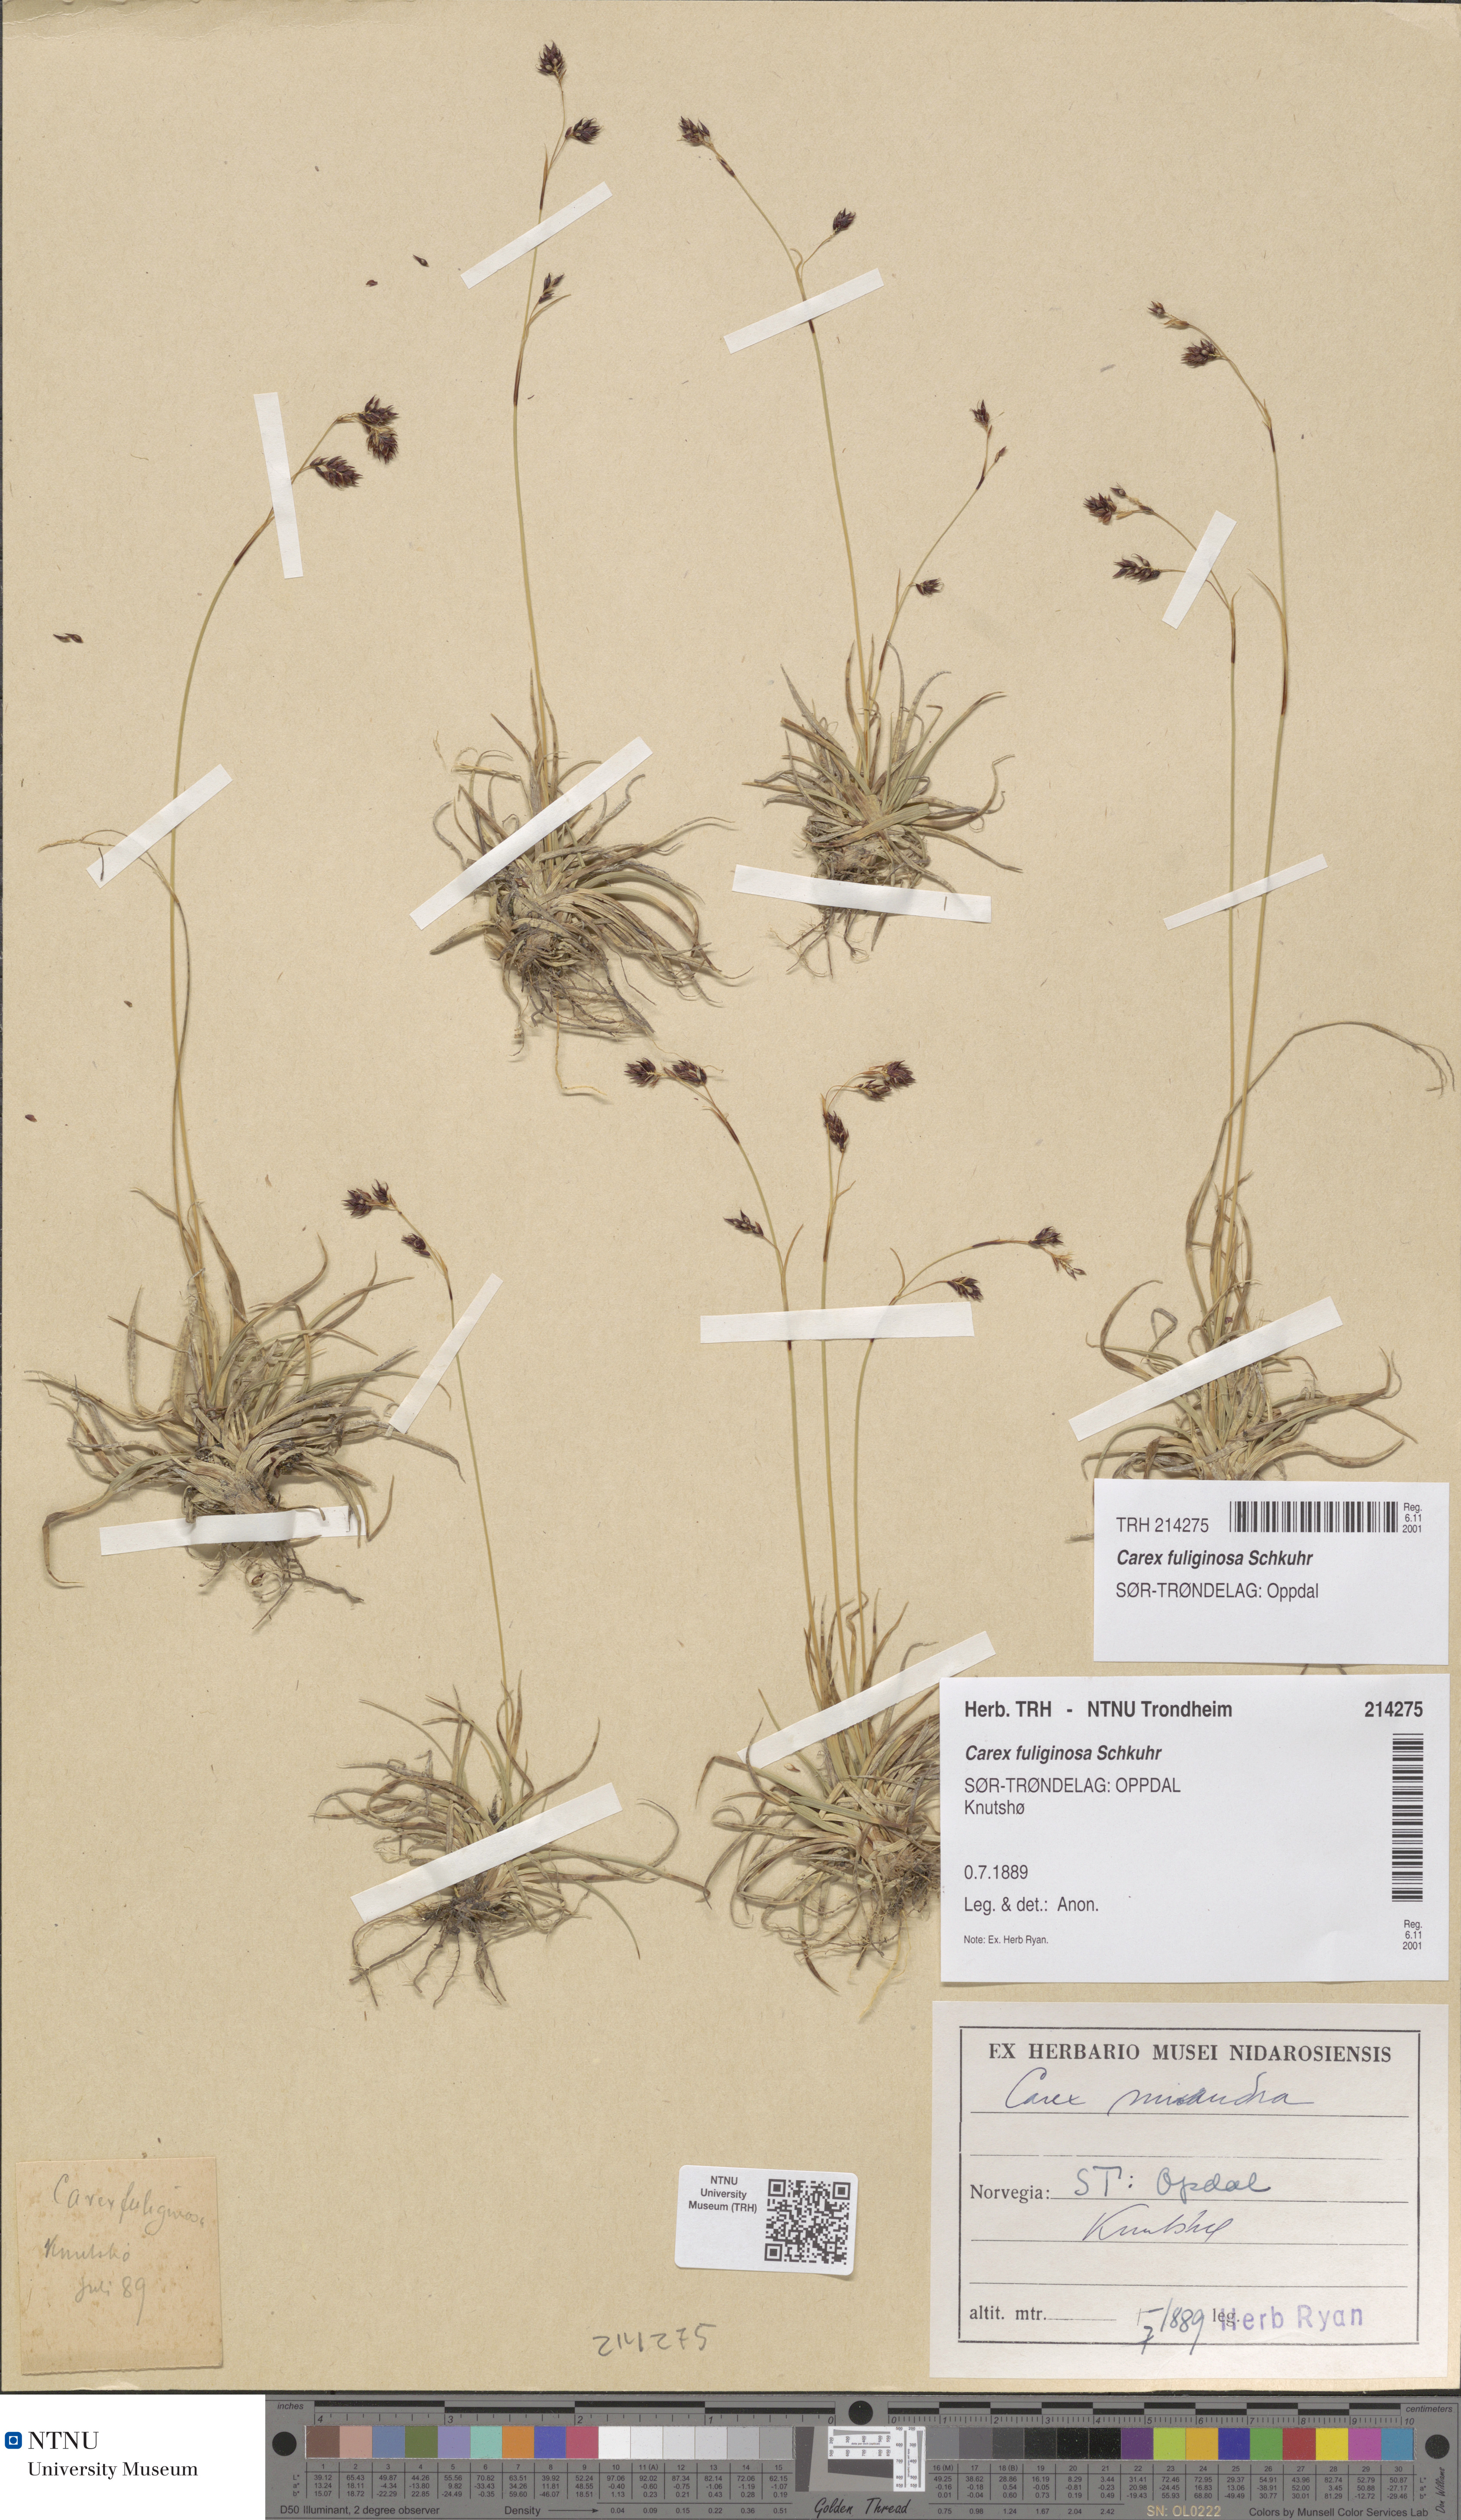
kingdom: Plantae
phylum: Tracheophyta
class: Liliopsida
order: Poales
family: Cyperaceae
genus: Carex
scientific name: Carex fuliginosa
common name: Few-flowered sedge
